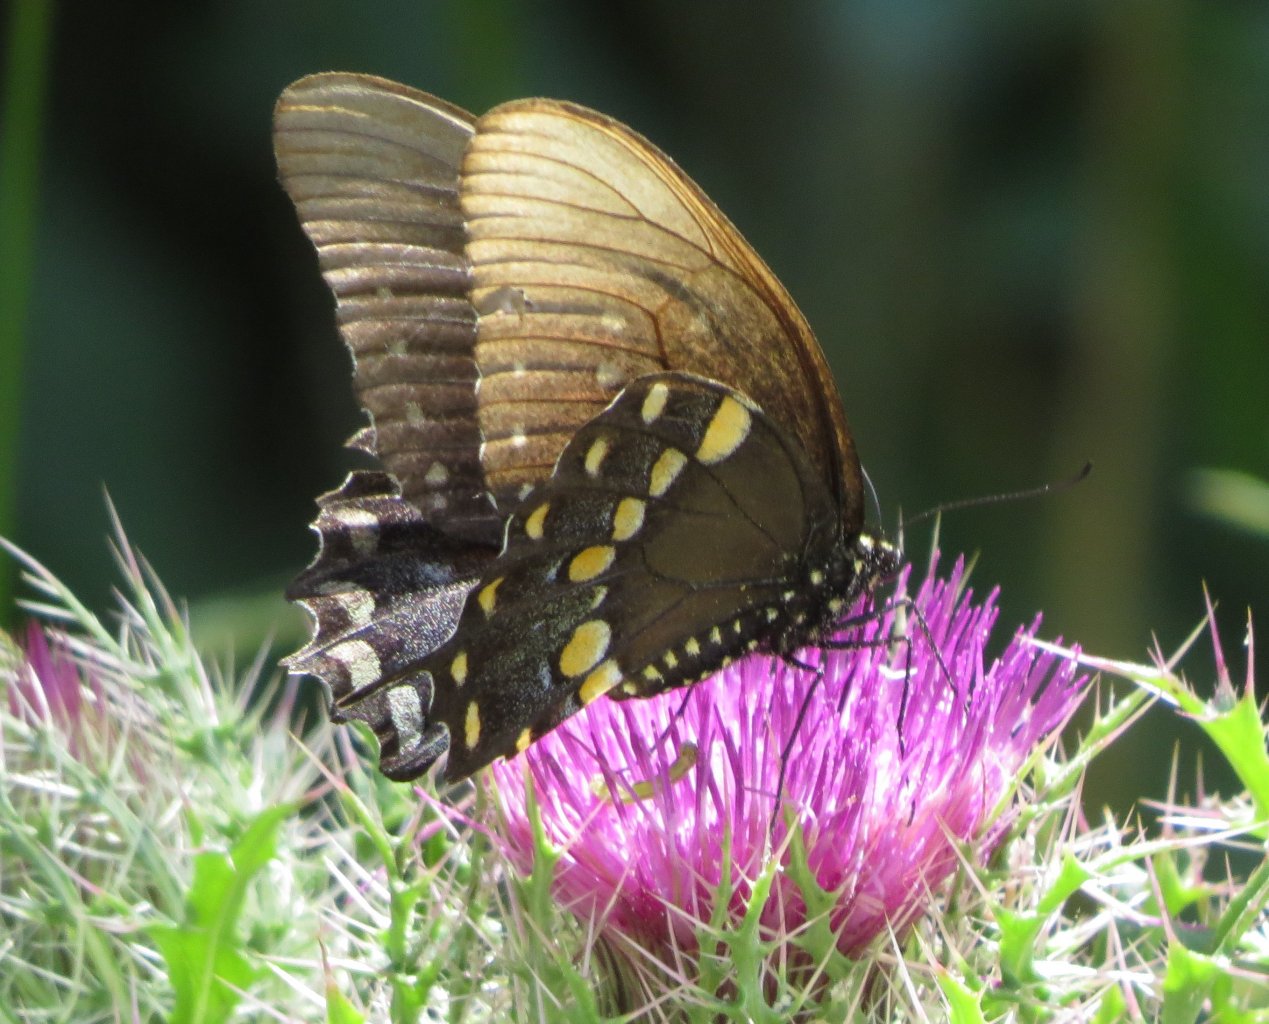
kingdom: Animalia
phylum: Arthropoda
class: Insecta
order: Lepidoptera
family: Papilionidae
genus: Pterourus
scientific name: Pterourus troilus
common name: Spicebush Swallowtail
